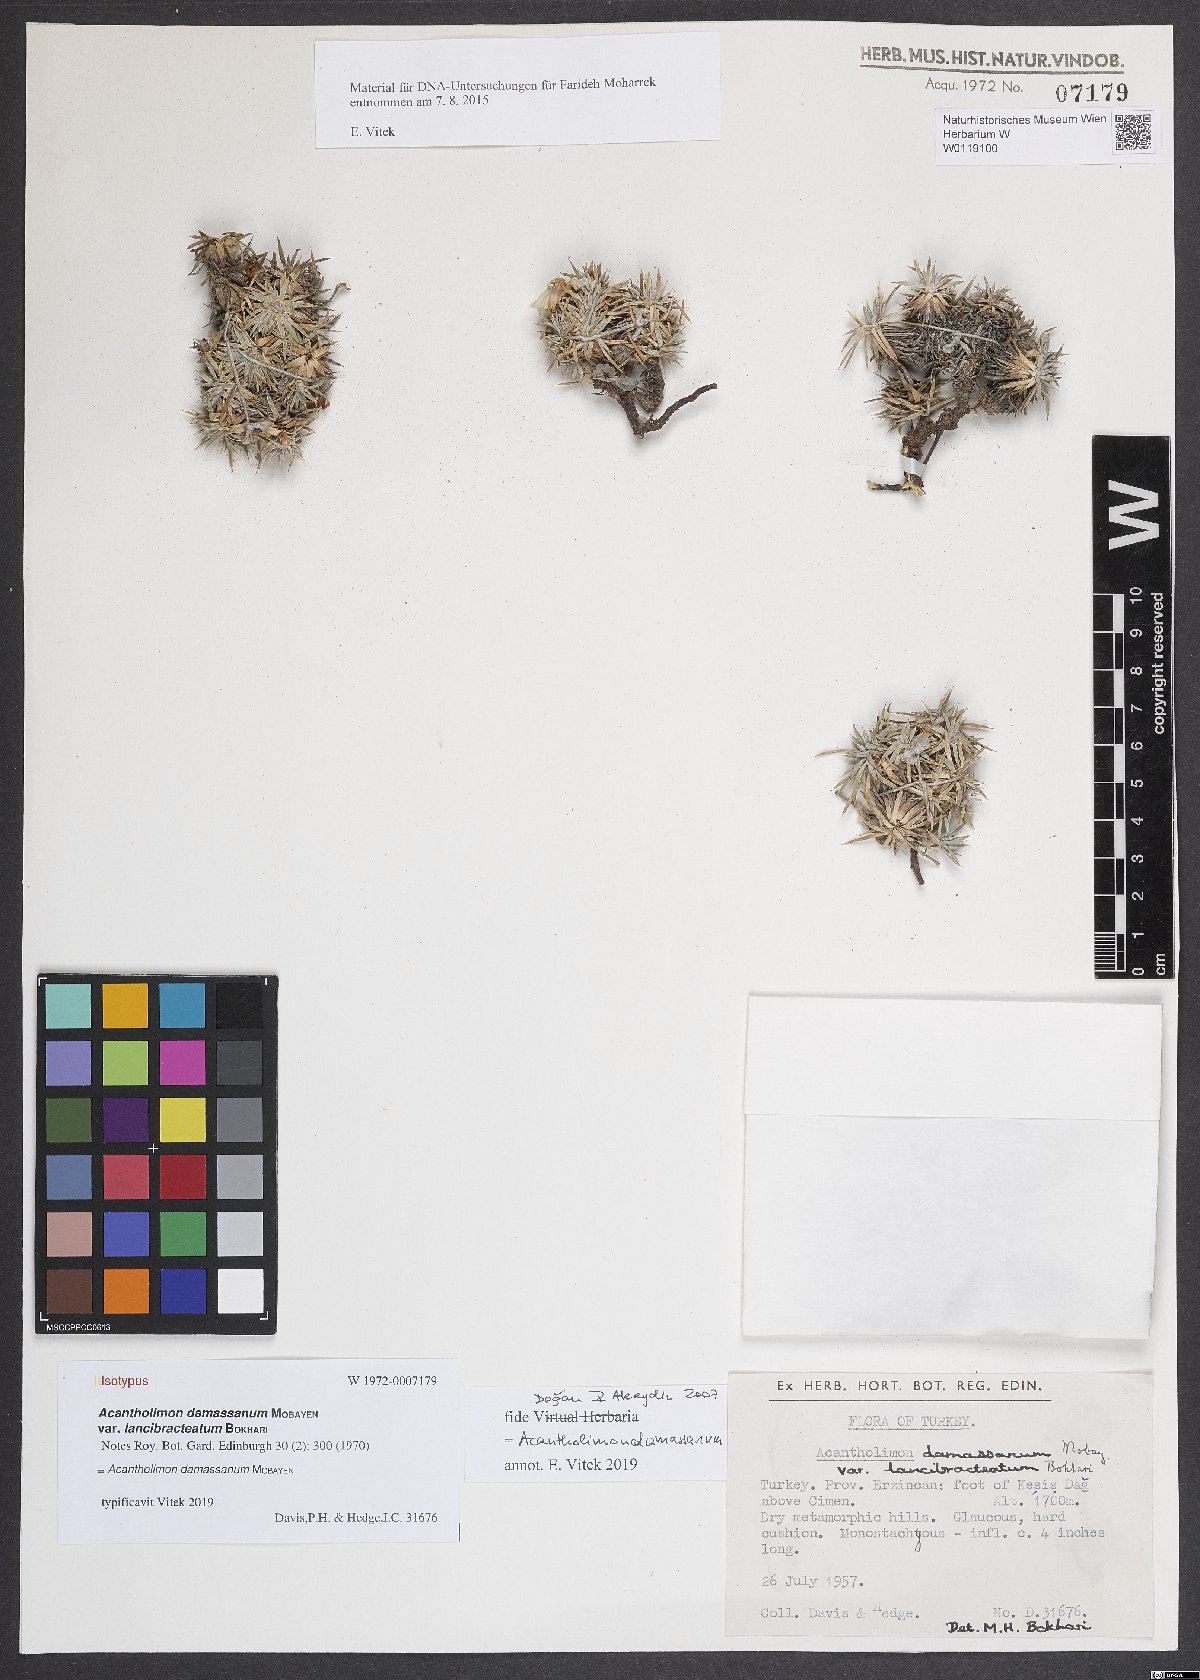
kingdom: Plantae
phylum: Tracheophyta
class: Magnoliopsida
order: Caryophyllales
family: Plumbaginaceae
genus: Acantholimon
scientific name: Acantholimon damassanum
